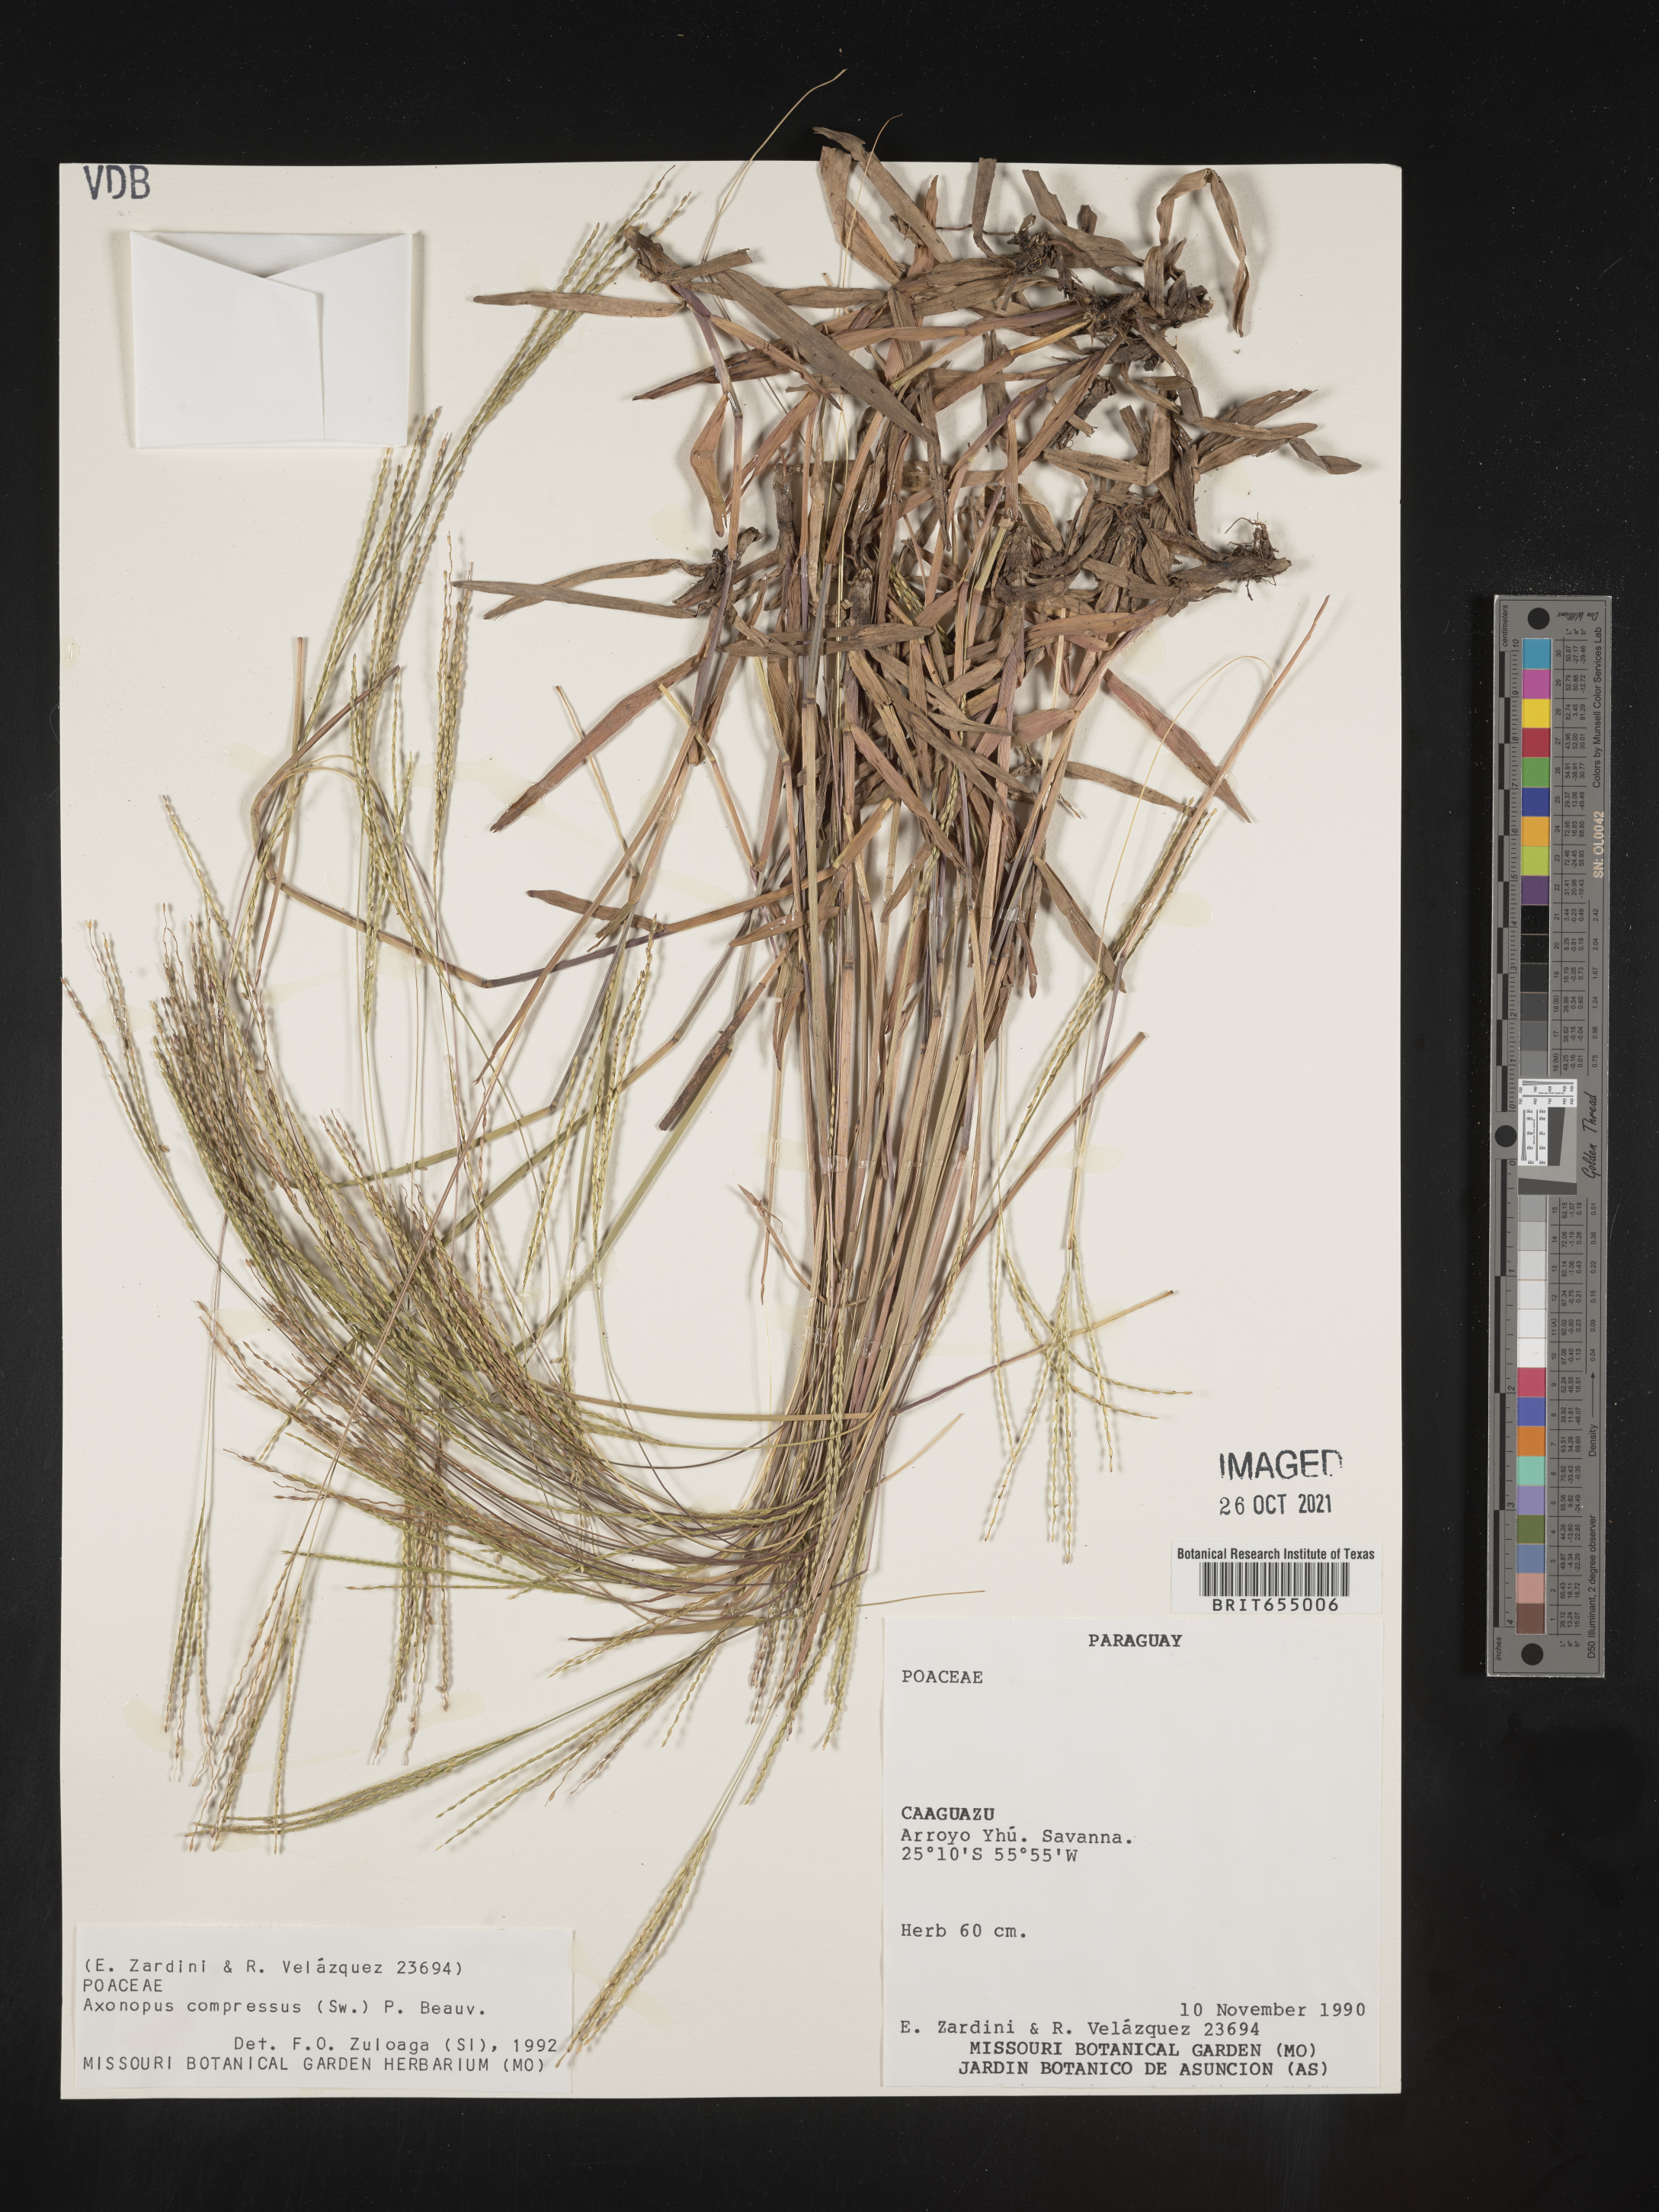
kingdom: Plantae
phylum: Tracheophyta
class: Liliopsida
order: Poales
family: Poaceae
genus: Axonopus
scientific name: Axonopus
